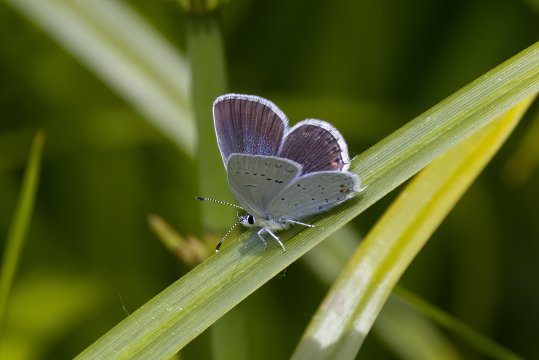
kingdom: Animalia
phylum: Arthropoda
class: Insecta
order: Lepidoptera
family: Lycaenidae
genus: Elkalyce
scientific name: Elkalyce amyntula
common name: Western Tailed-Blue
